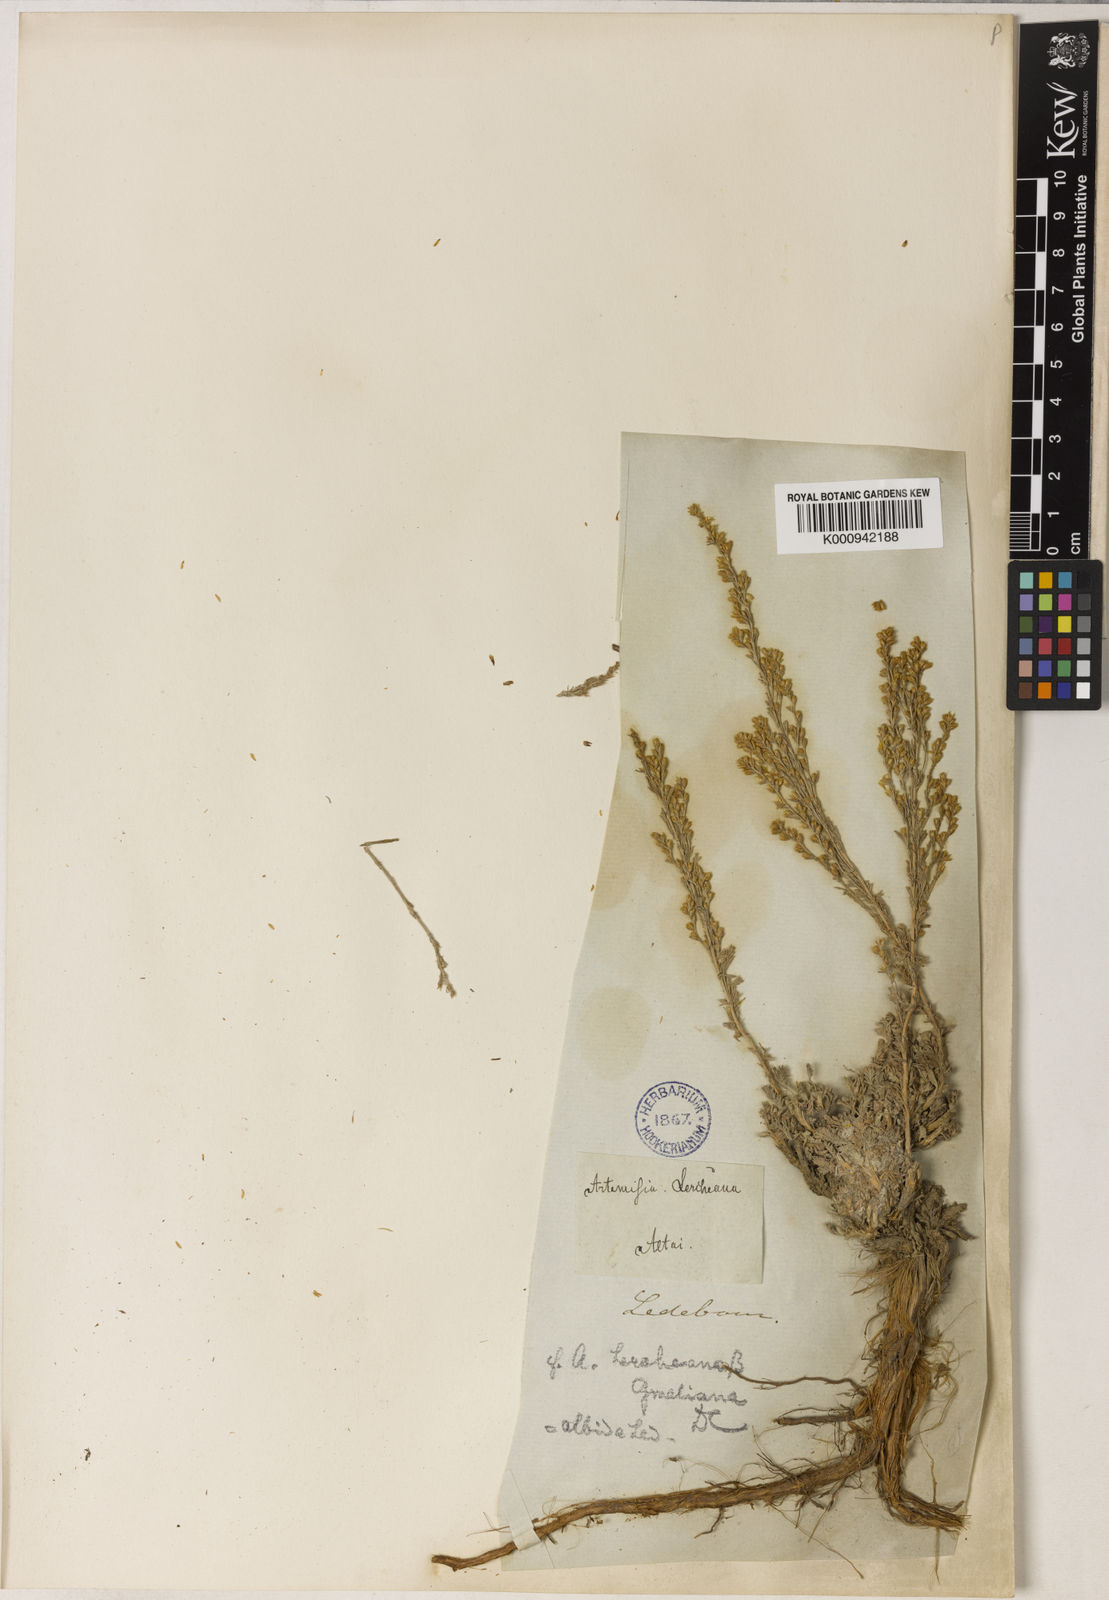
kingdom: Plantae
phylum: Tracheophyta
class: Magnoliopsida
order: Asterales
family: Asteraceae
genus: Artemisia
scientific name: Artemisia compacta
